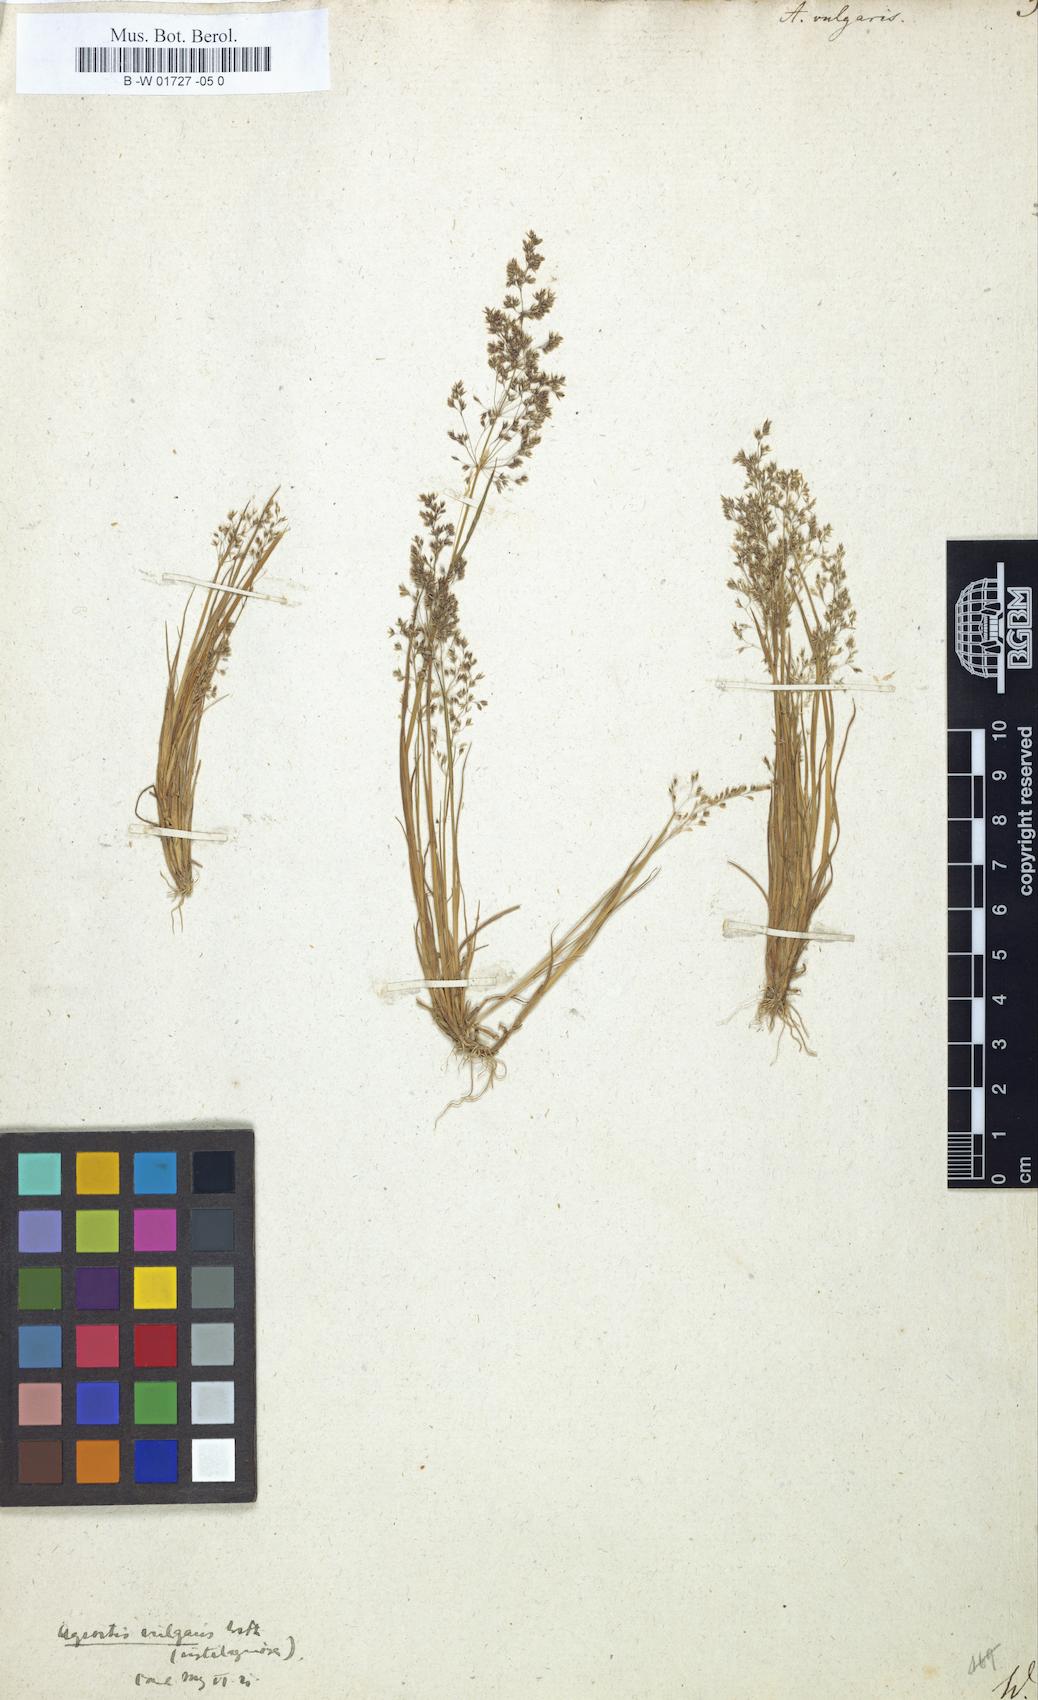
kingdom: Plantae
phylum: Tracheophyta
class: Liliopsida
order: Poales
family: Poaceae
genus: Agrostis
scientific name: Agrostis capillaris
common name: Colonial bentgrass
